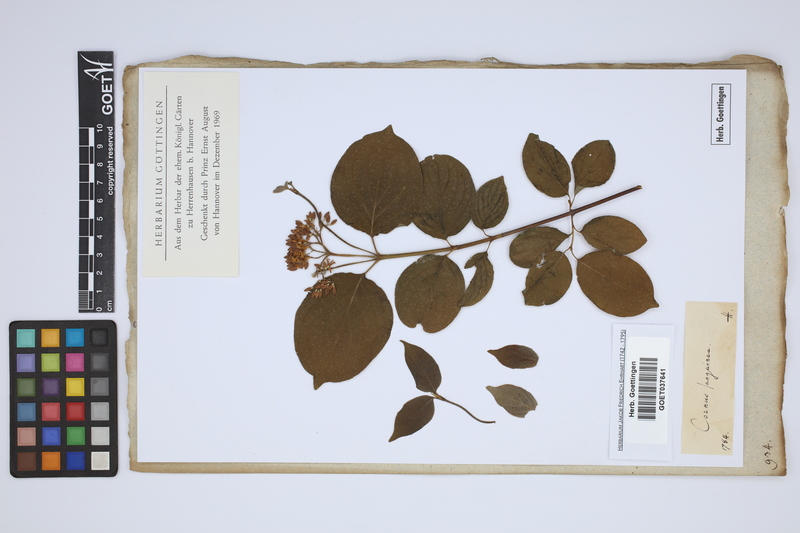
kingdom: Plantae
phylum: Tracheophyta
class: Magnoliopsida
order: Cornales
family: Cornaceae
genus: Cornus
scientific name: Cornus sanguinea
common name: Dogwood
